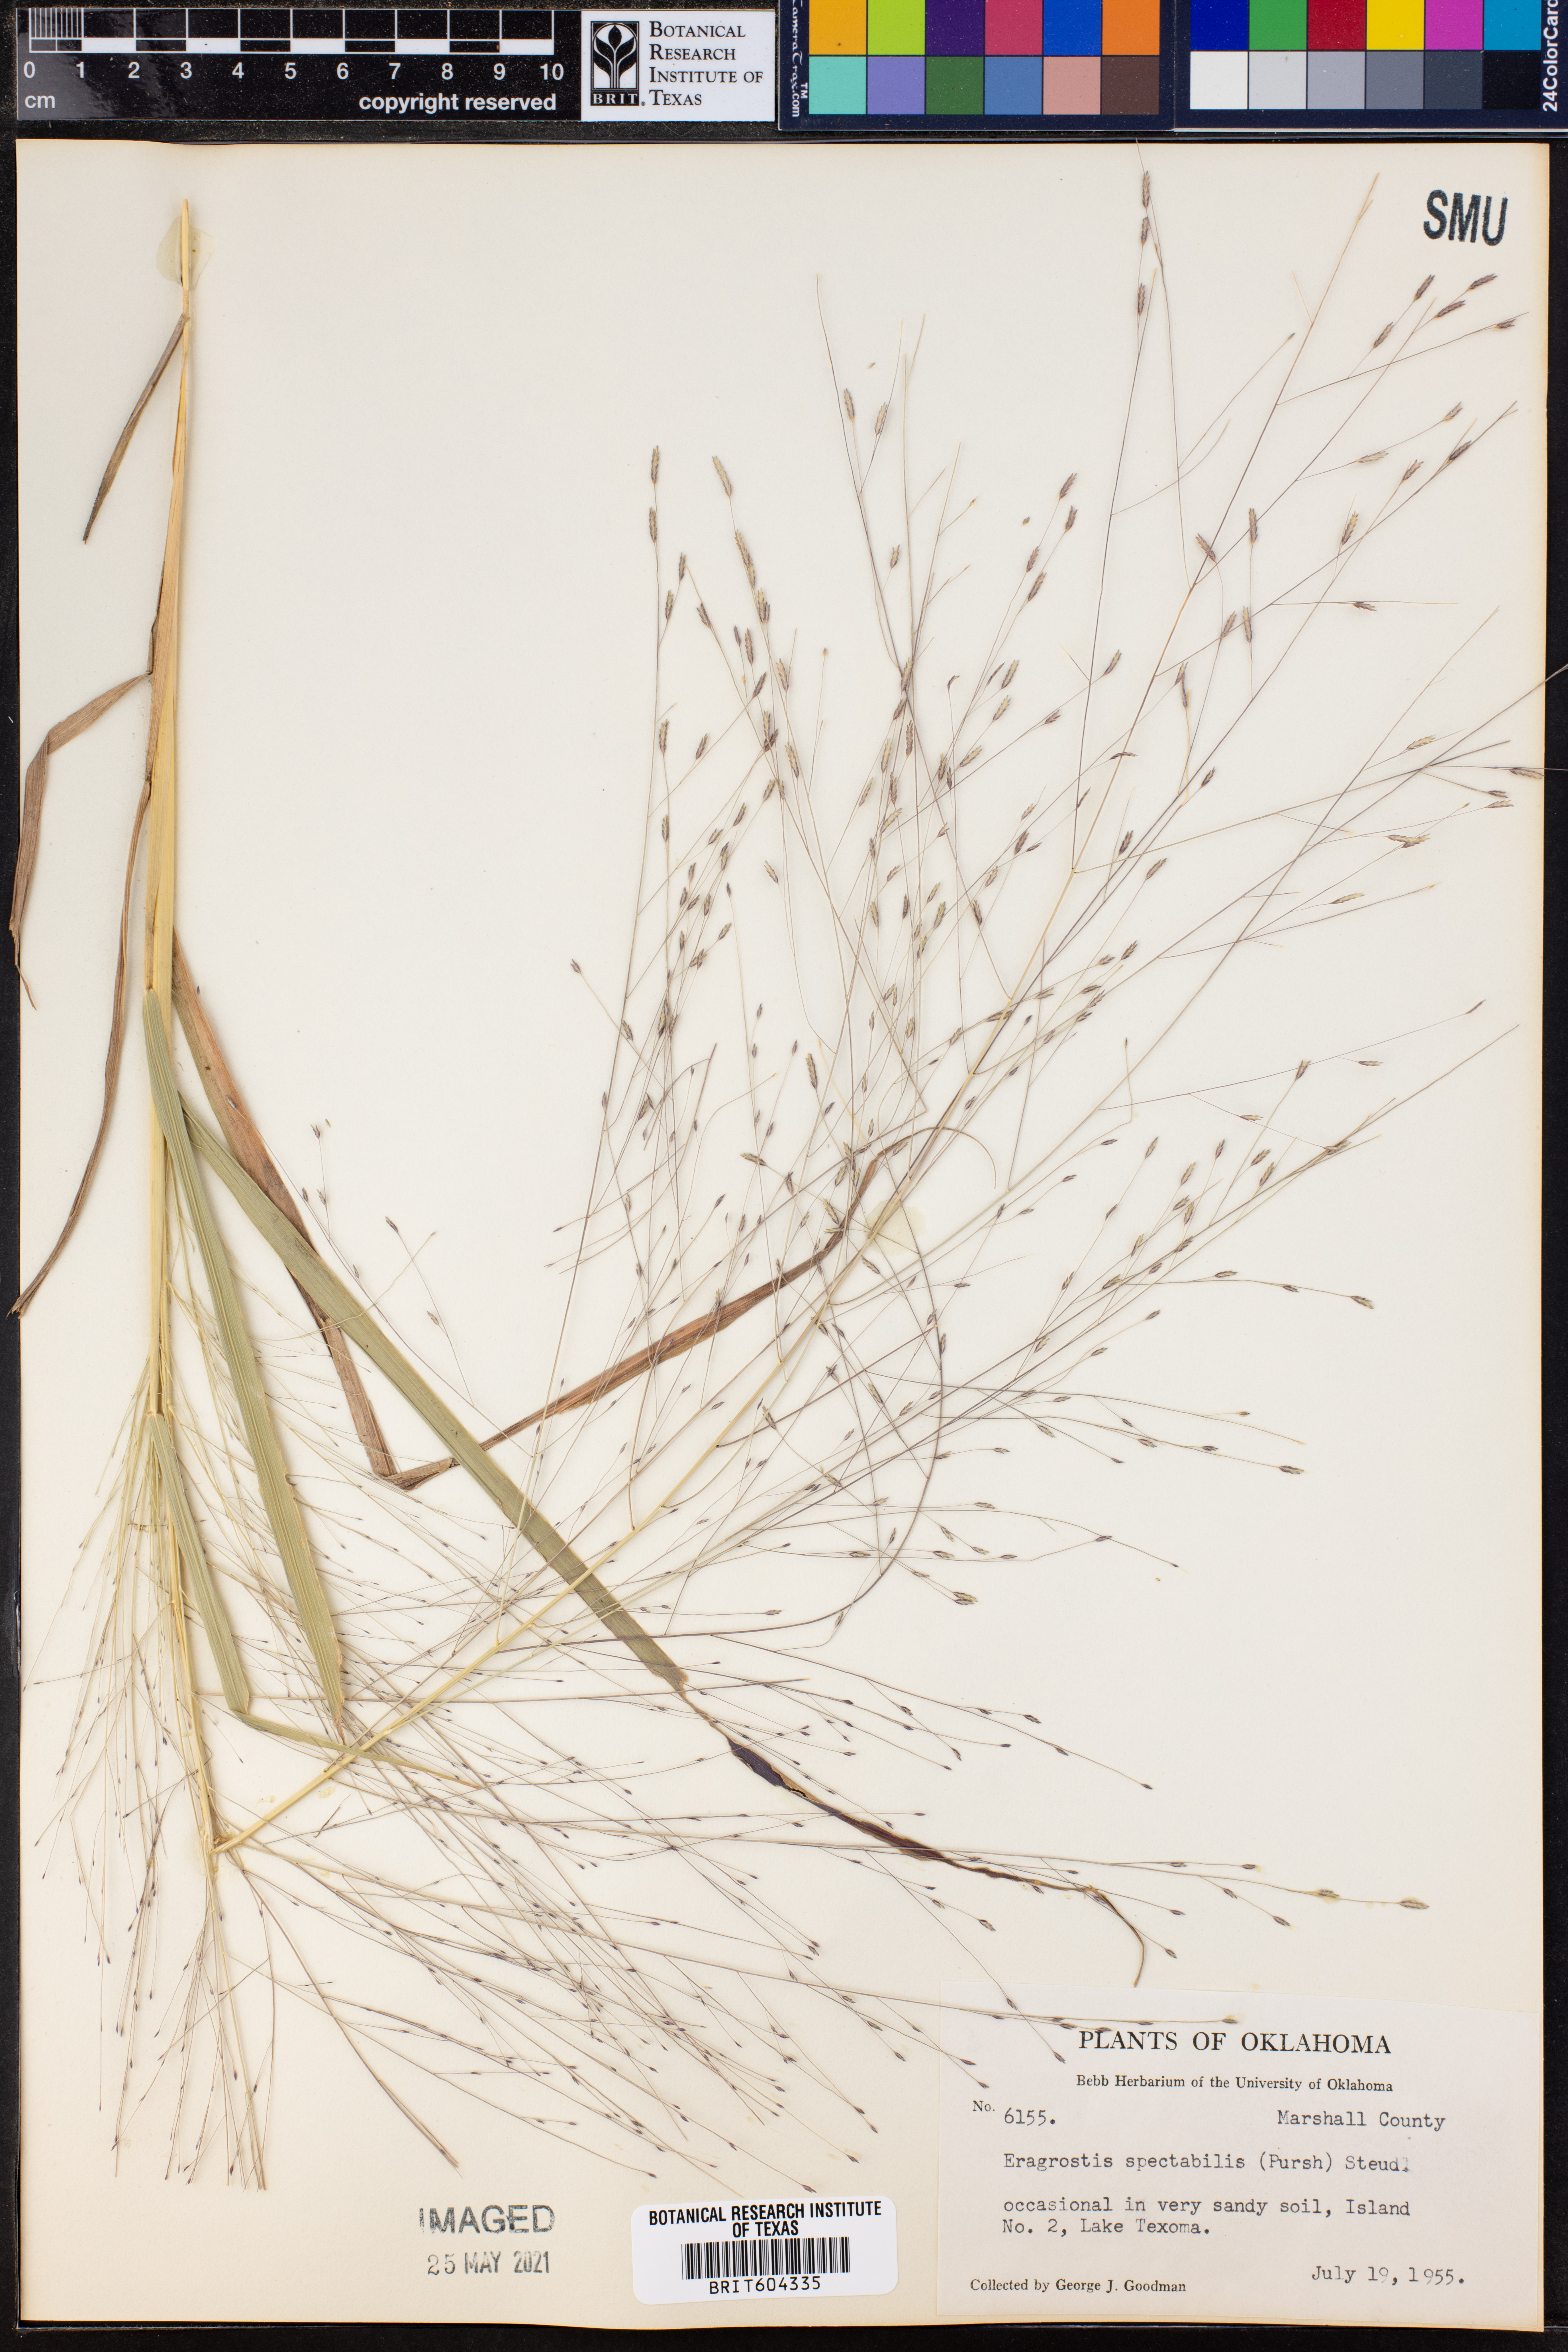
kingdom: Plantae
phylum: Tracheophyta
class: Liliopsida
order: Poales
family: Poaceae
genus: Eragrostis
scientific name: Eragrostis spectabilis
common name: Petticoat-climber
